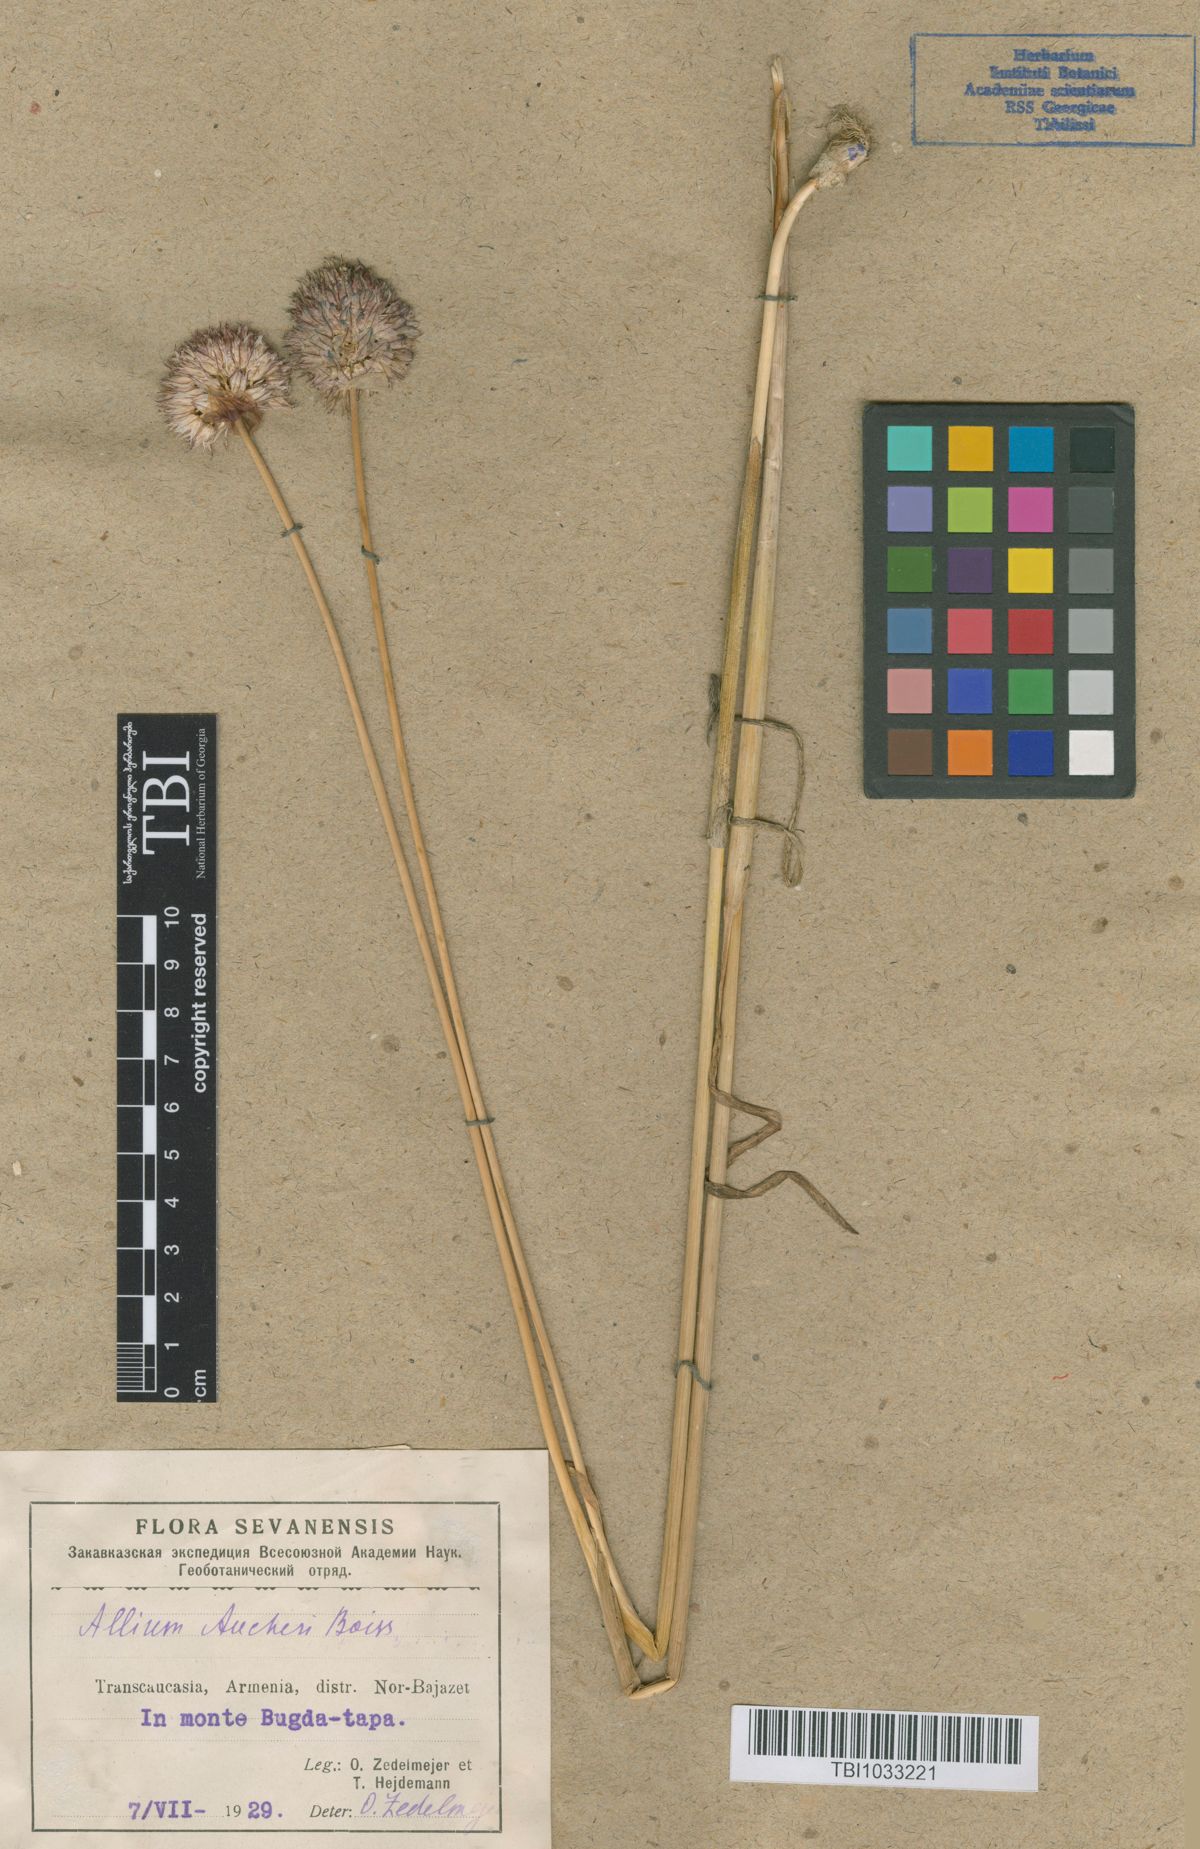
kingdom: Plantae
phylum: Tracheophyta
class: Liliopsida
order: Asparagales
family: Amaryllidaceae
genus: Allium
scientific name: Allium aucheri
